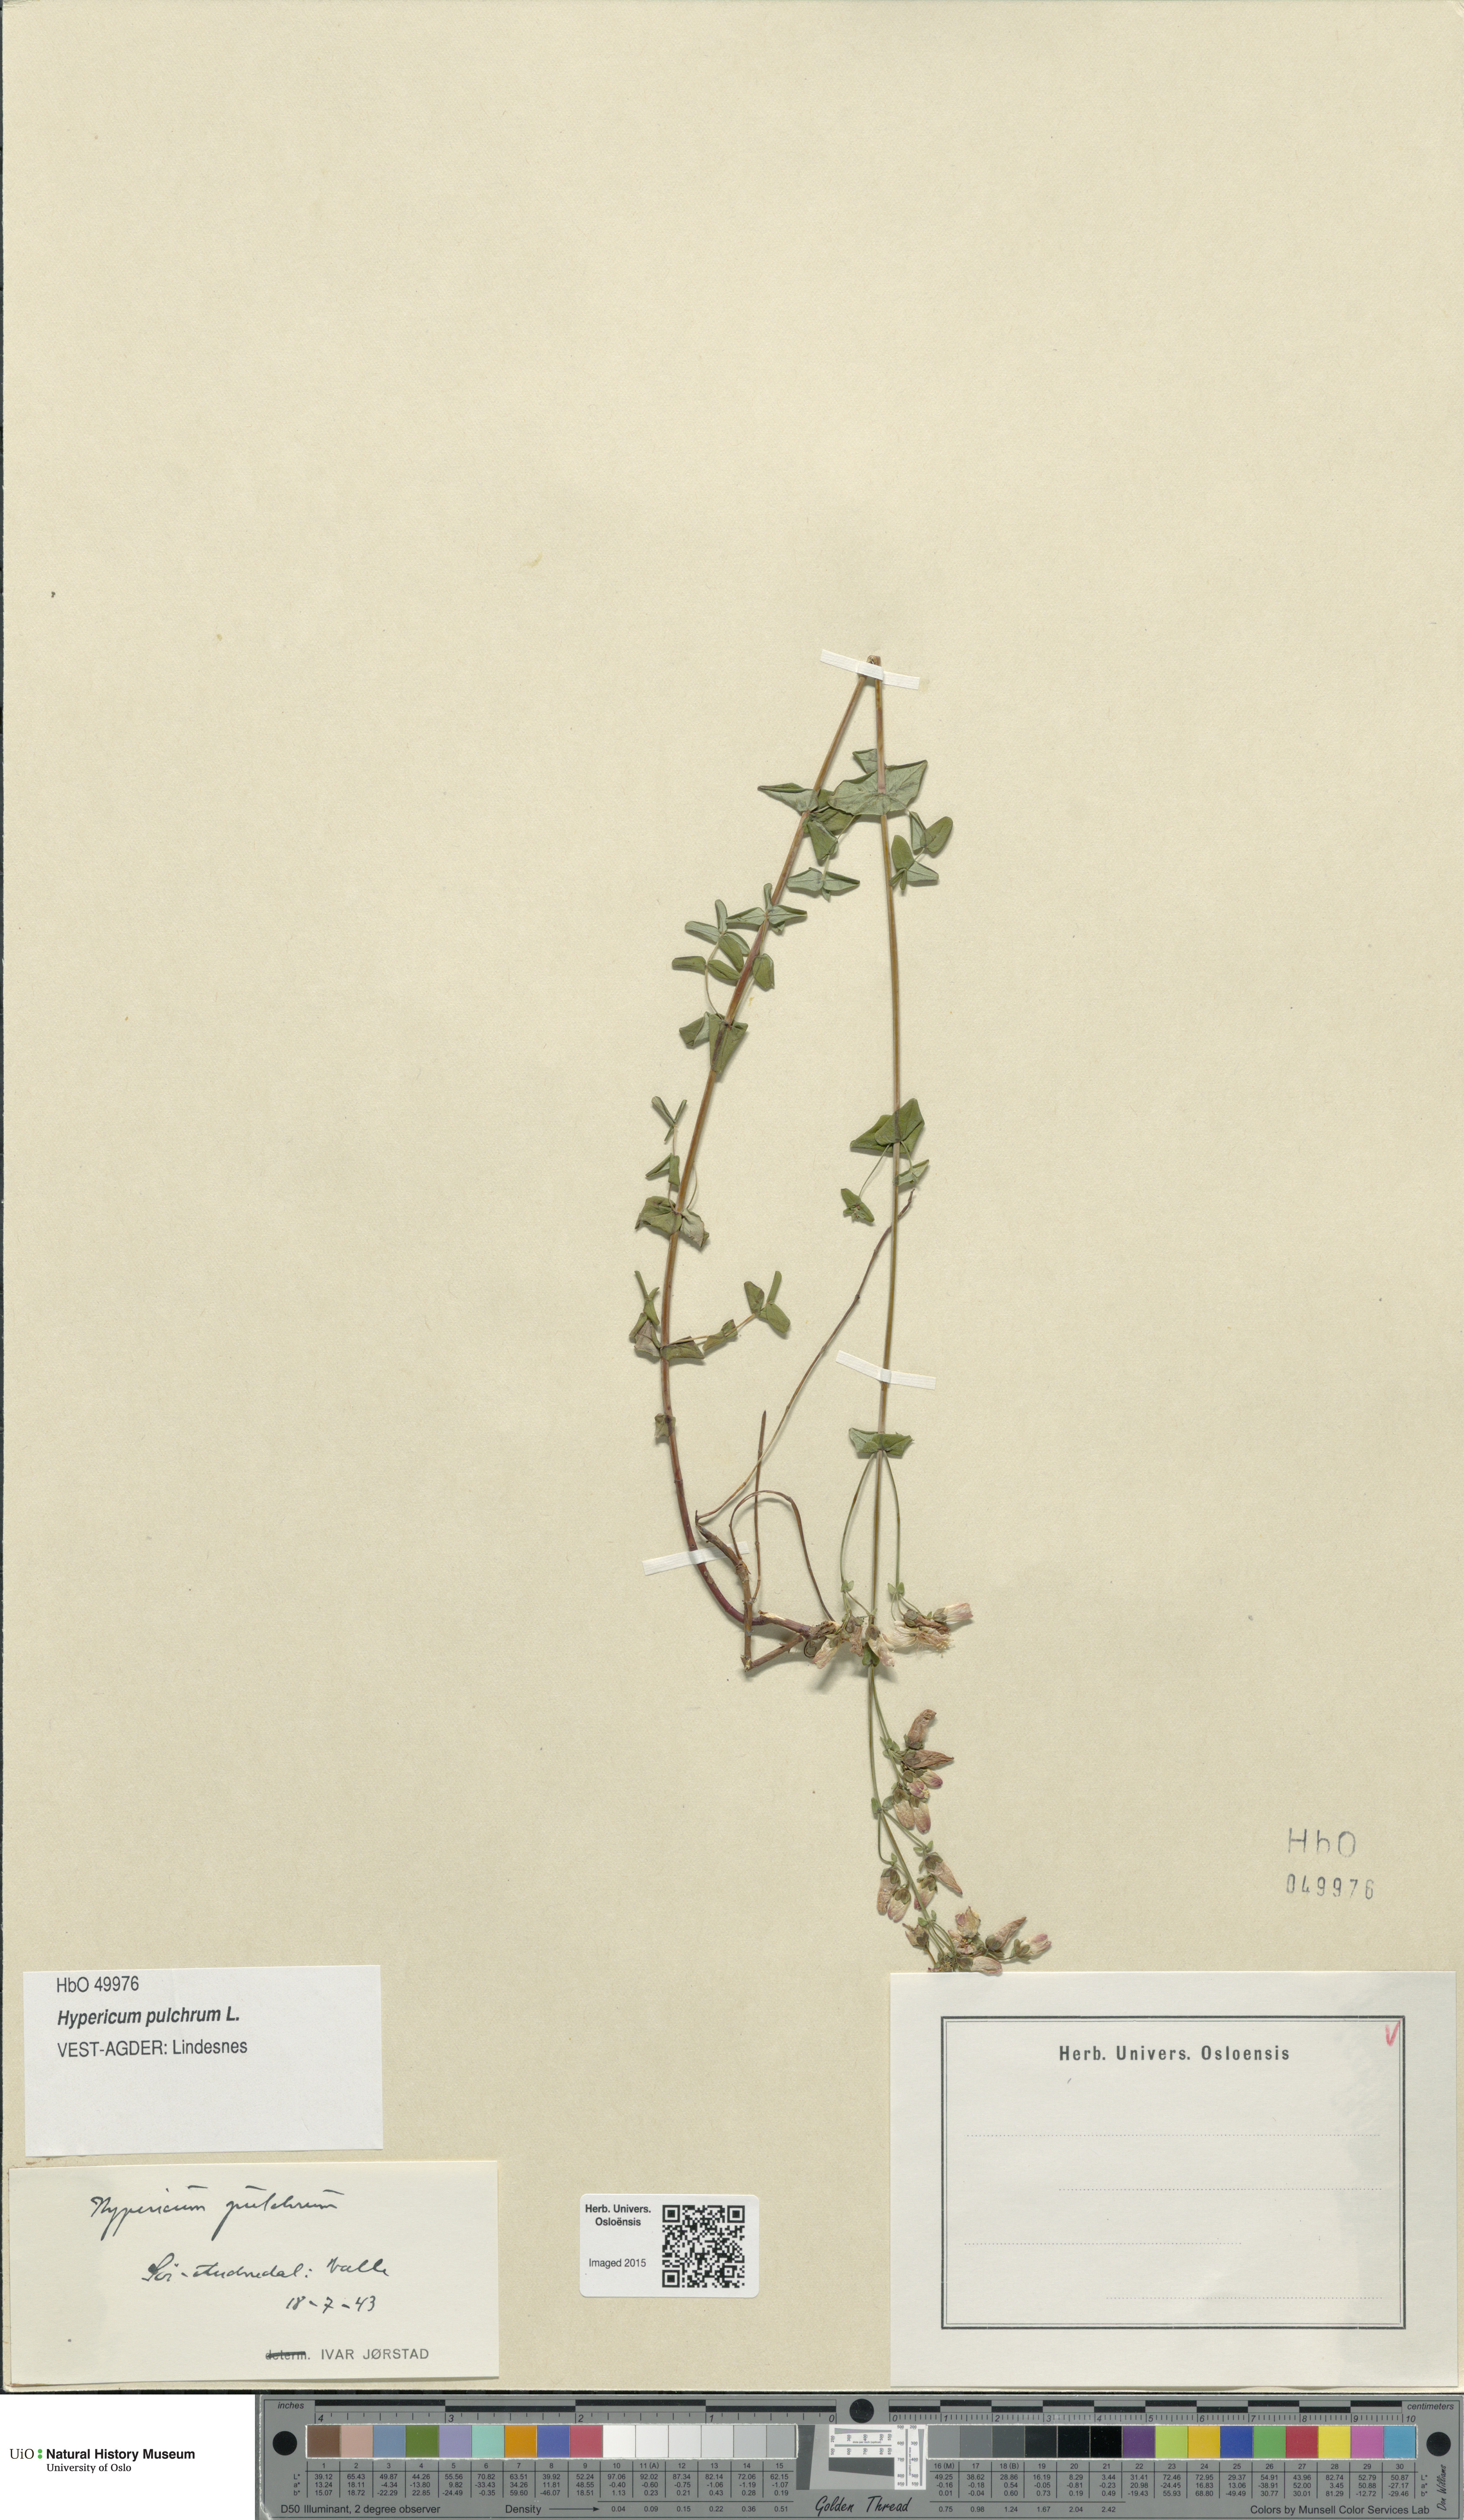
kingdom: Plantae
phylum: Tracheophyta
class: Magnoliopsida
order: Malpighiales
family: Hypericaceae
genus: Hypericum
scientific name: Hypericum pulchrum
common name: Slender st. john's-wort
